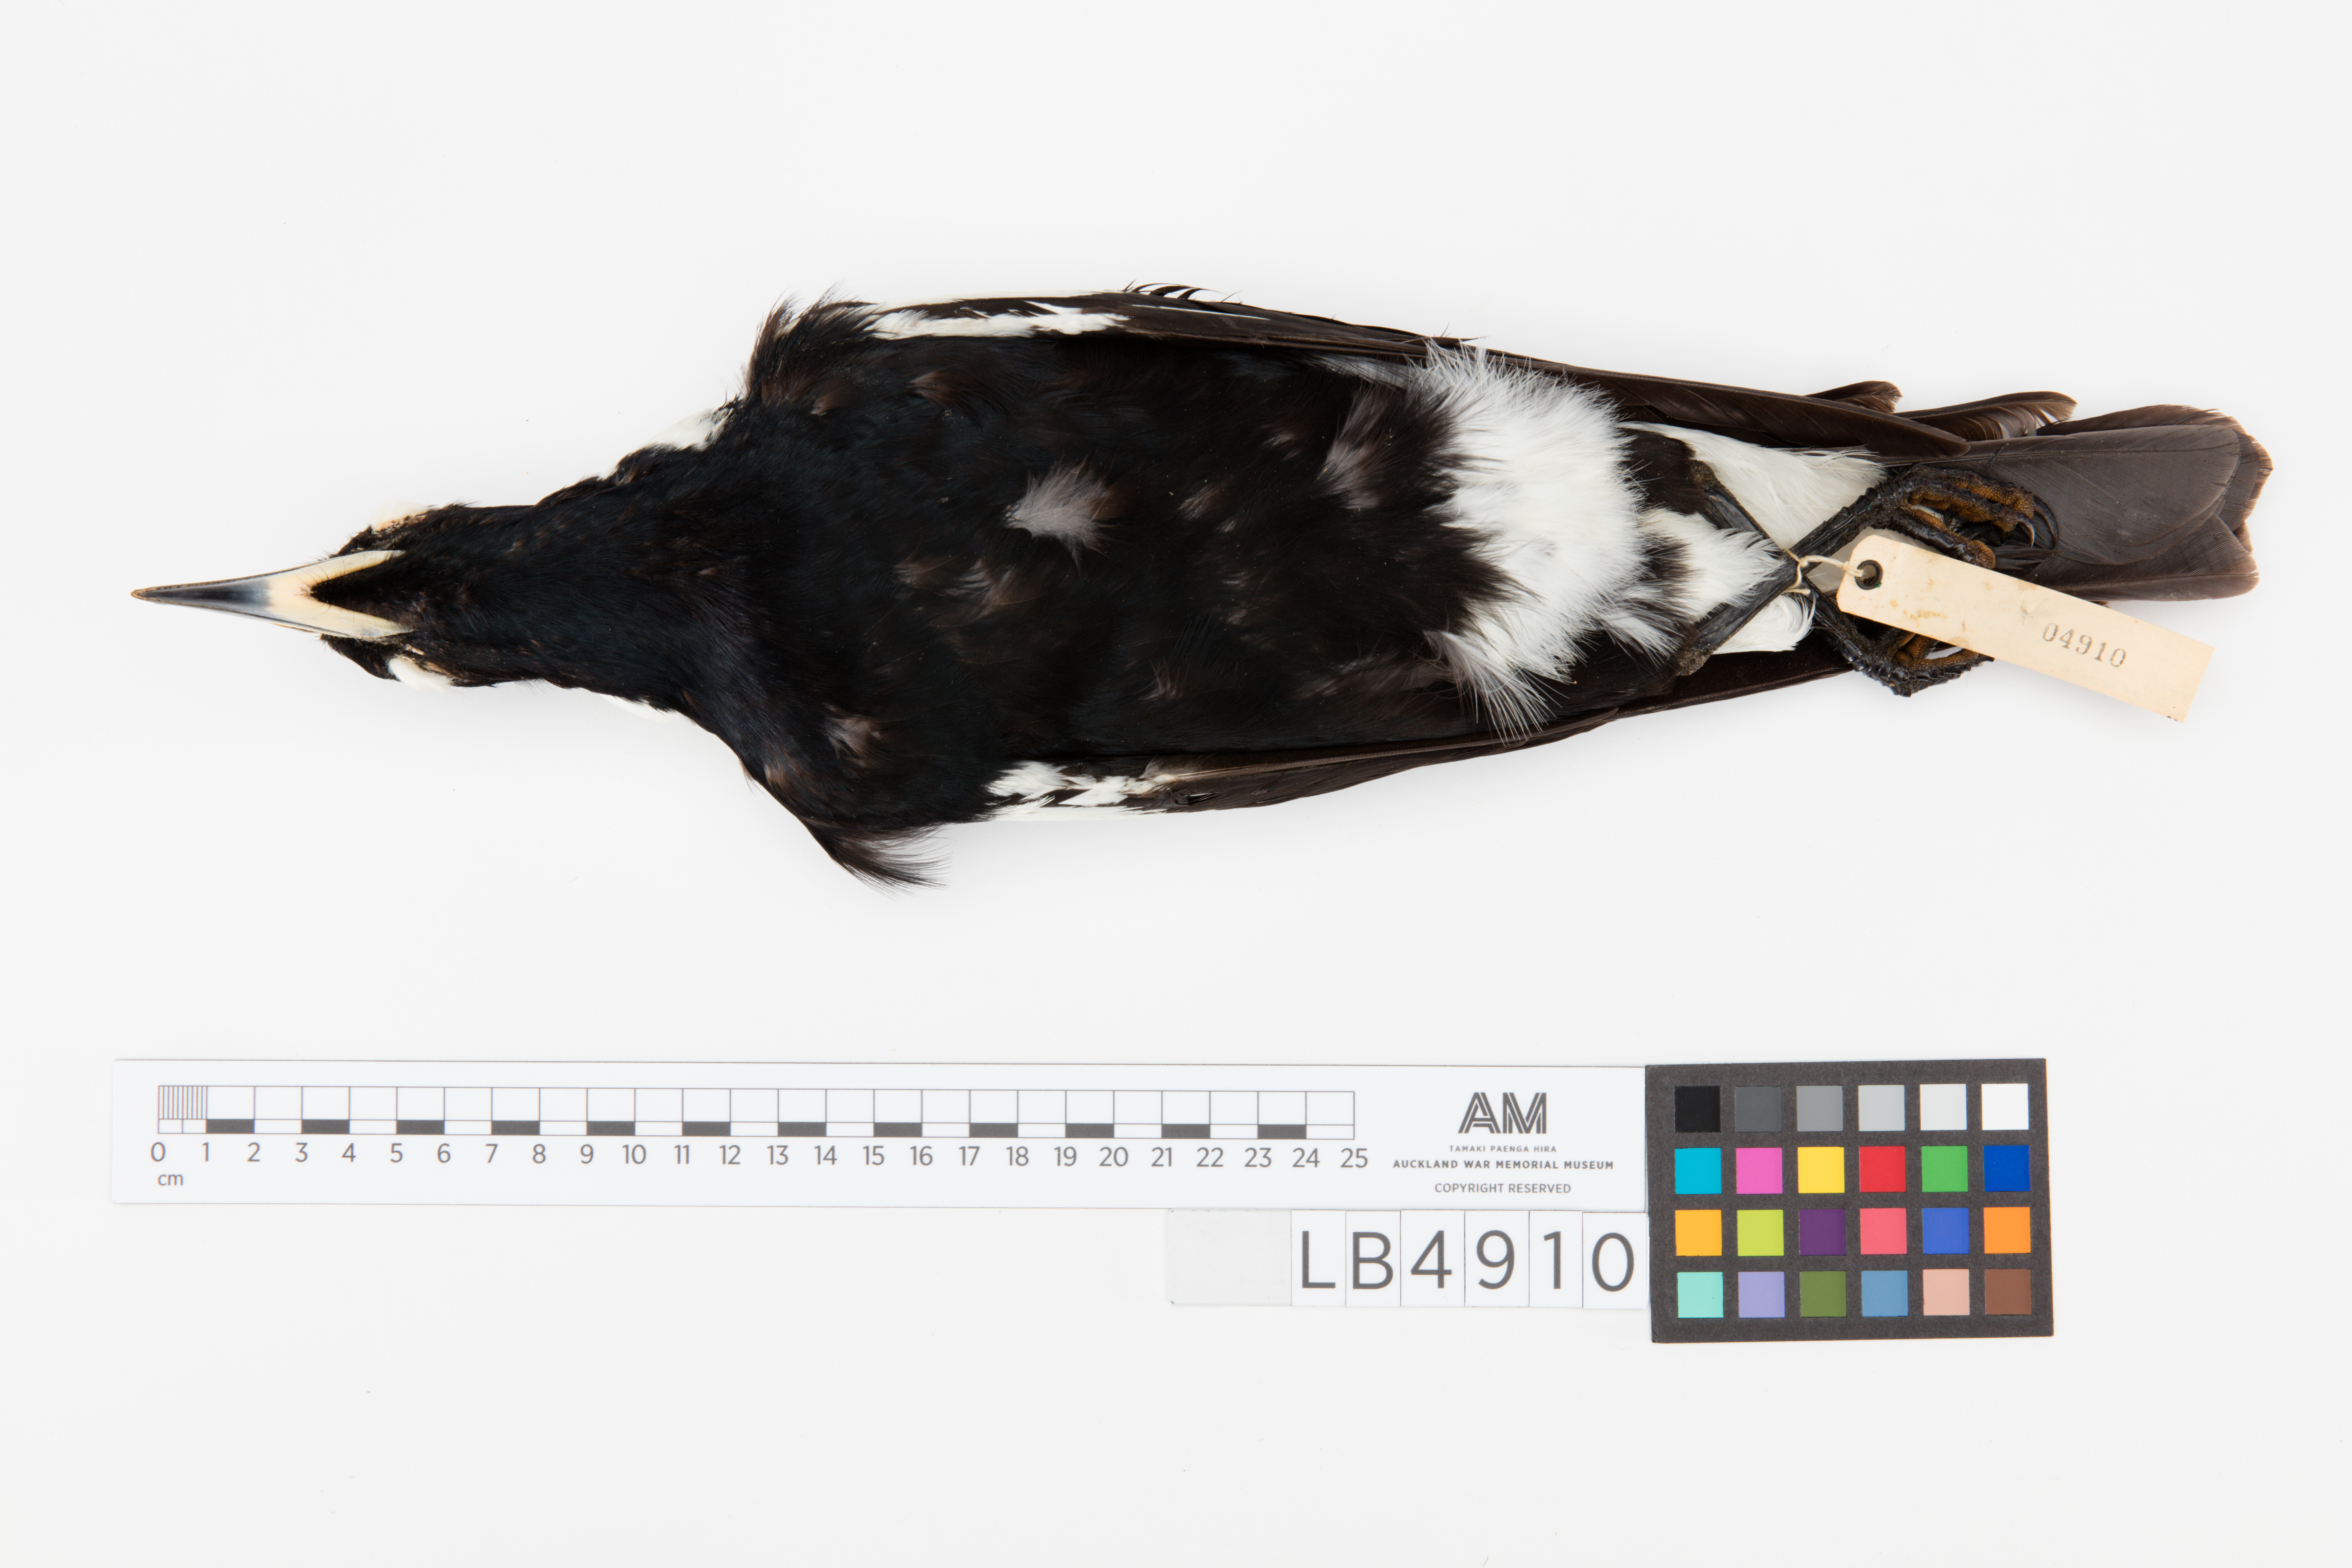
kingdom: Animalia
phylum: Chordata
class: Aves
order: Passeriformes
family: Cracticidae
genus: Gymnorhina
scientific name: Gymnorhina tibicen
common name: Australian magpie
